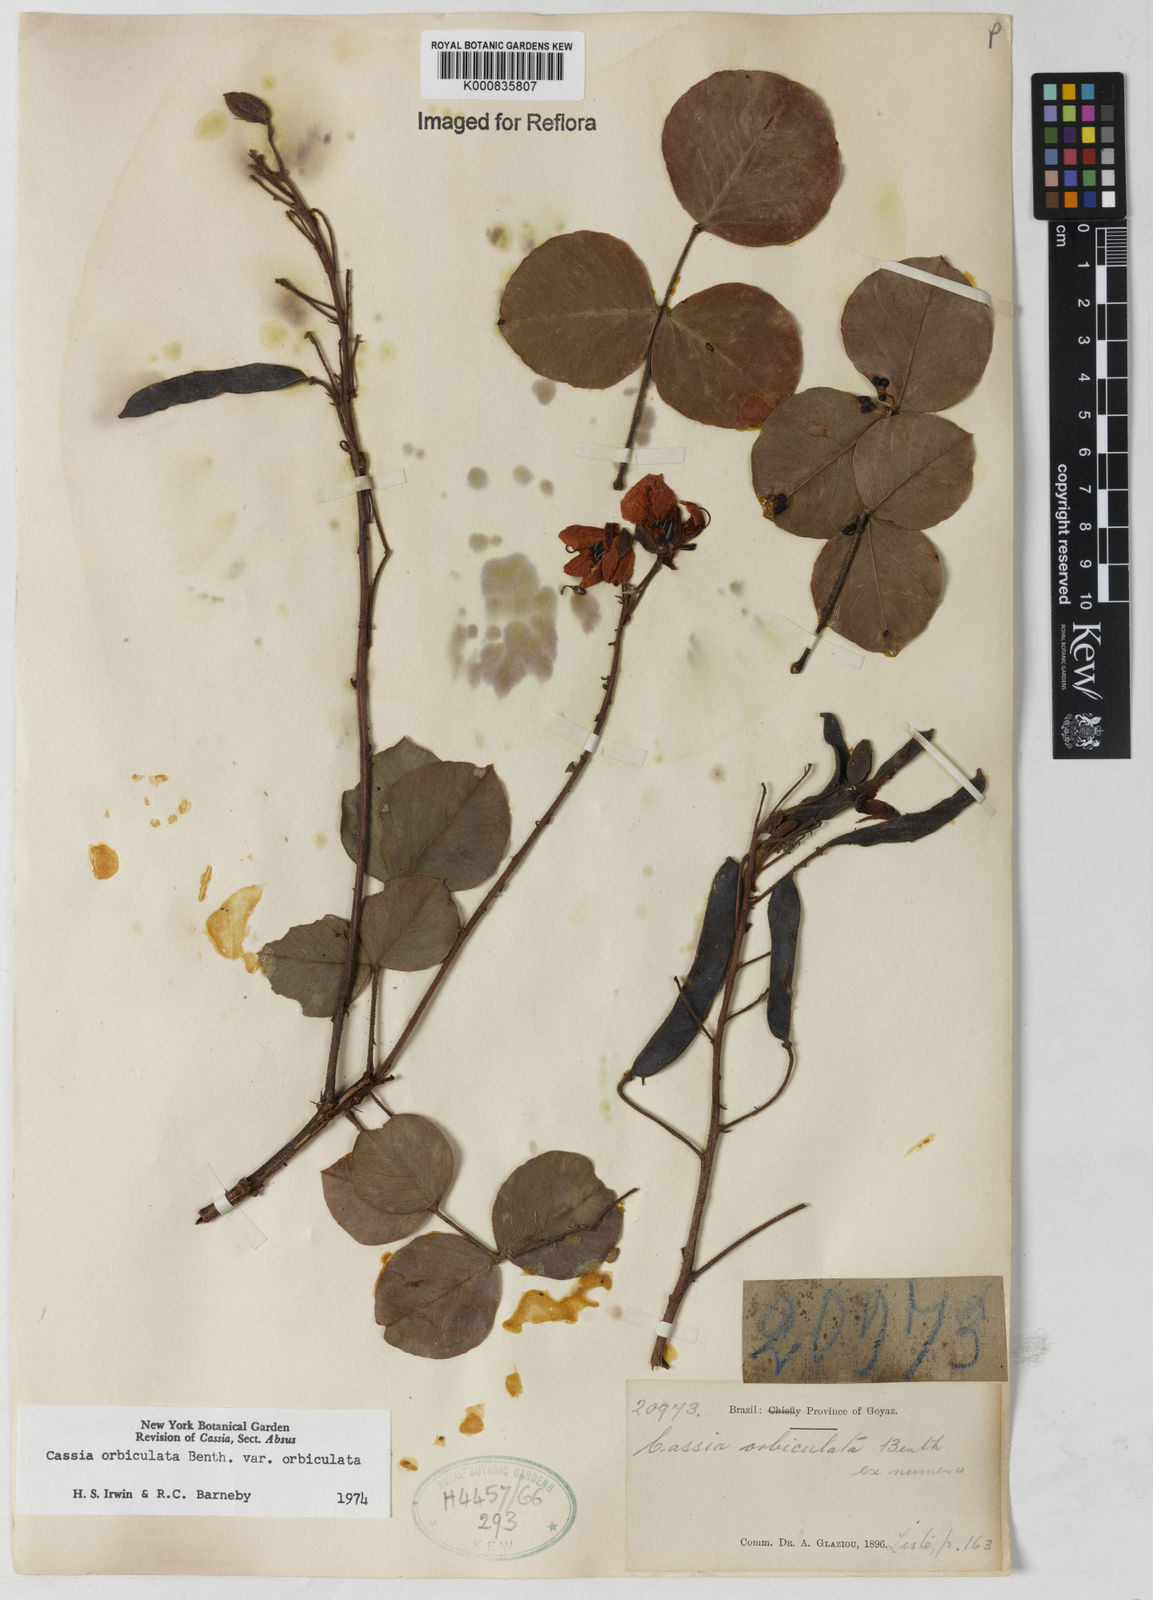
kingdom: Plantae
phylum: Tracheophyta
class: Magnoliopsida
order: Fabales
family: Fabaceae
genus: Chamaecrista
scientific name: Chamaecrista orbiculata
